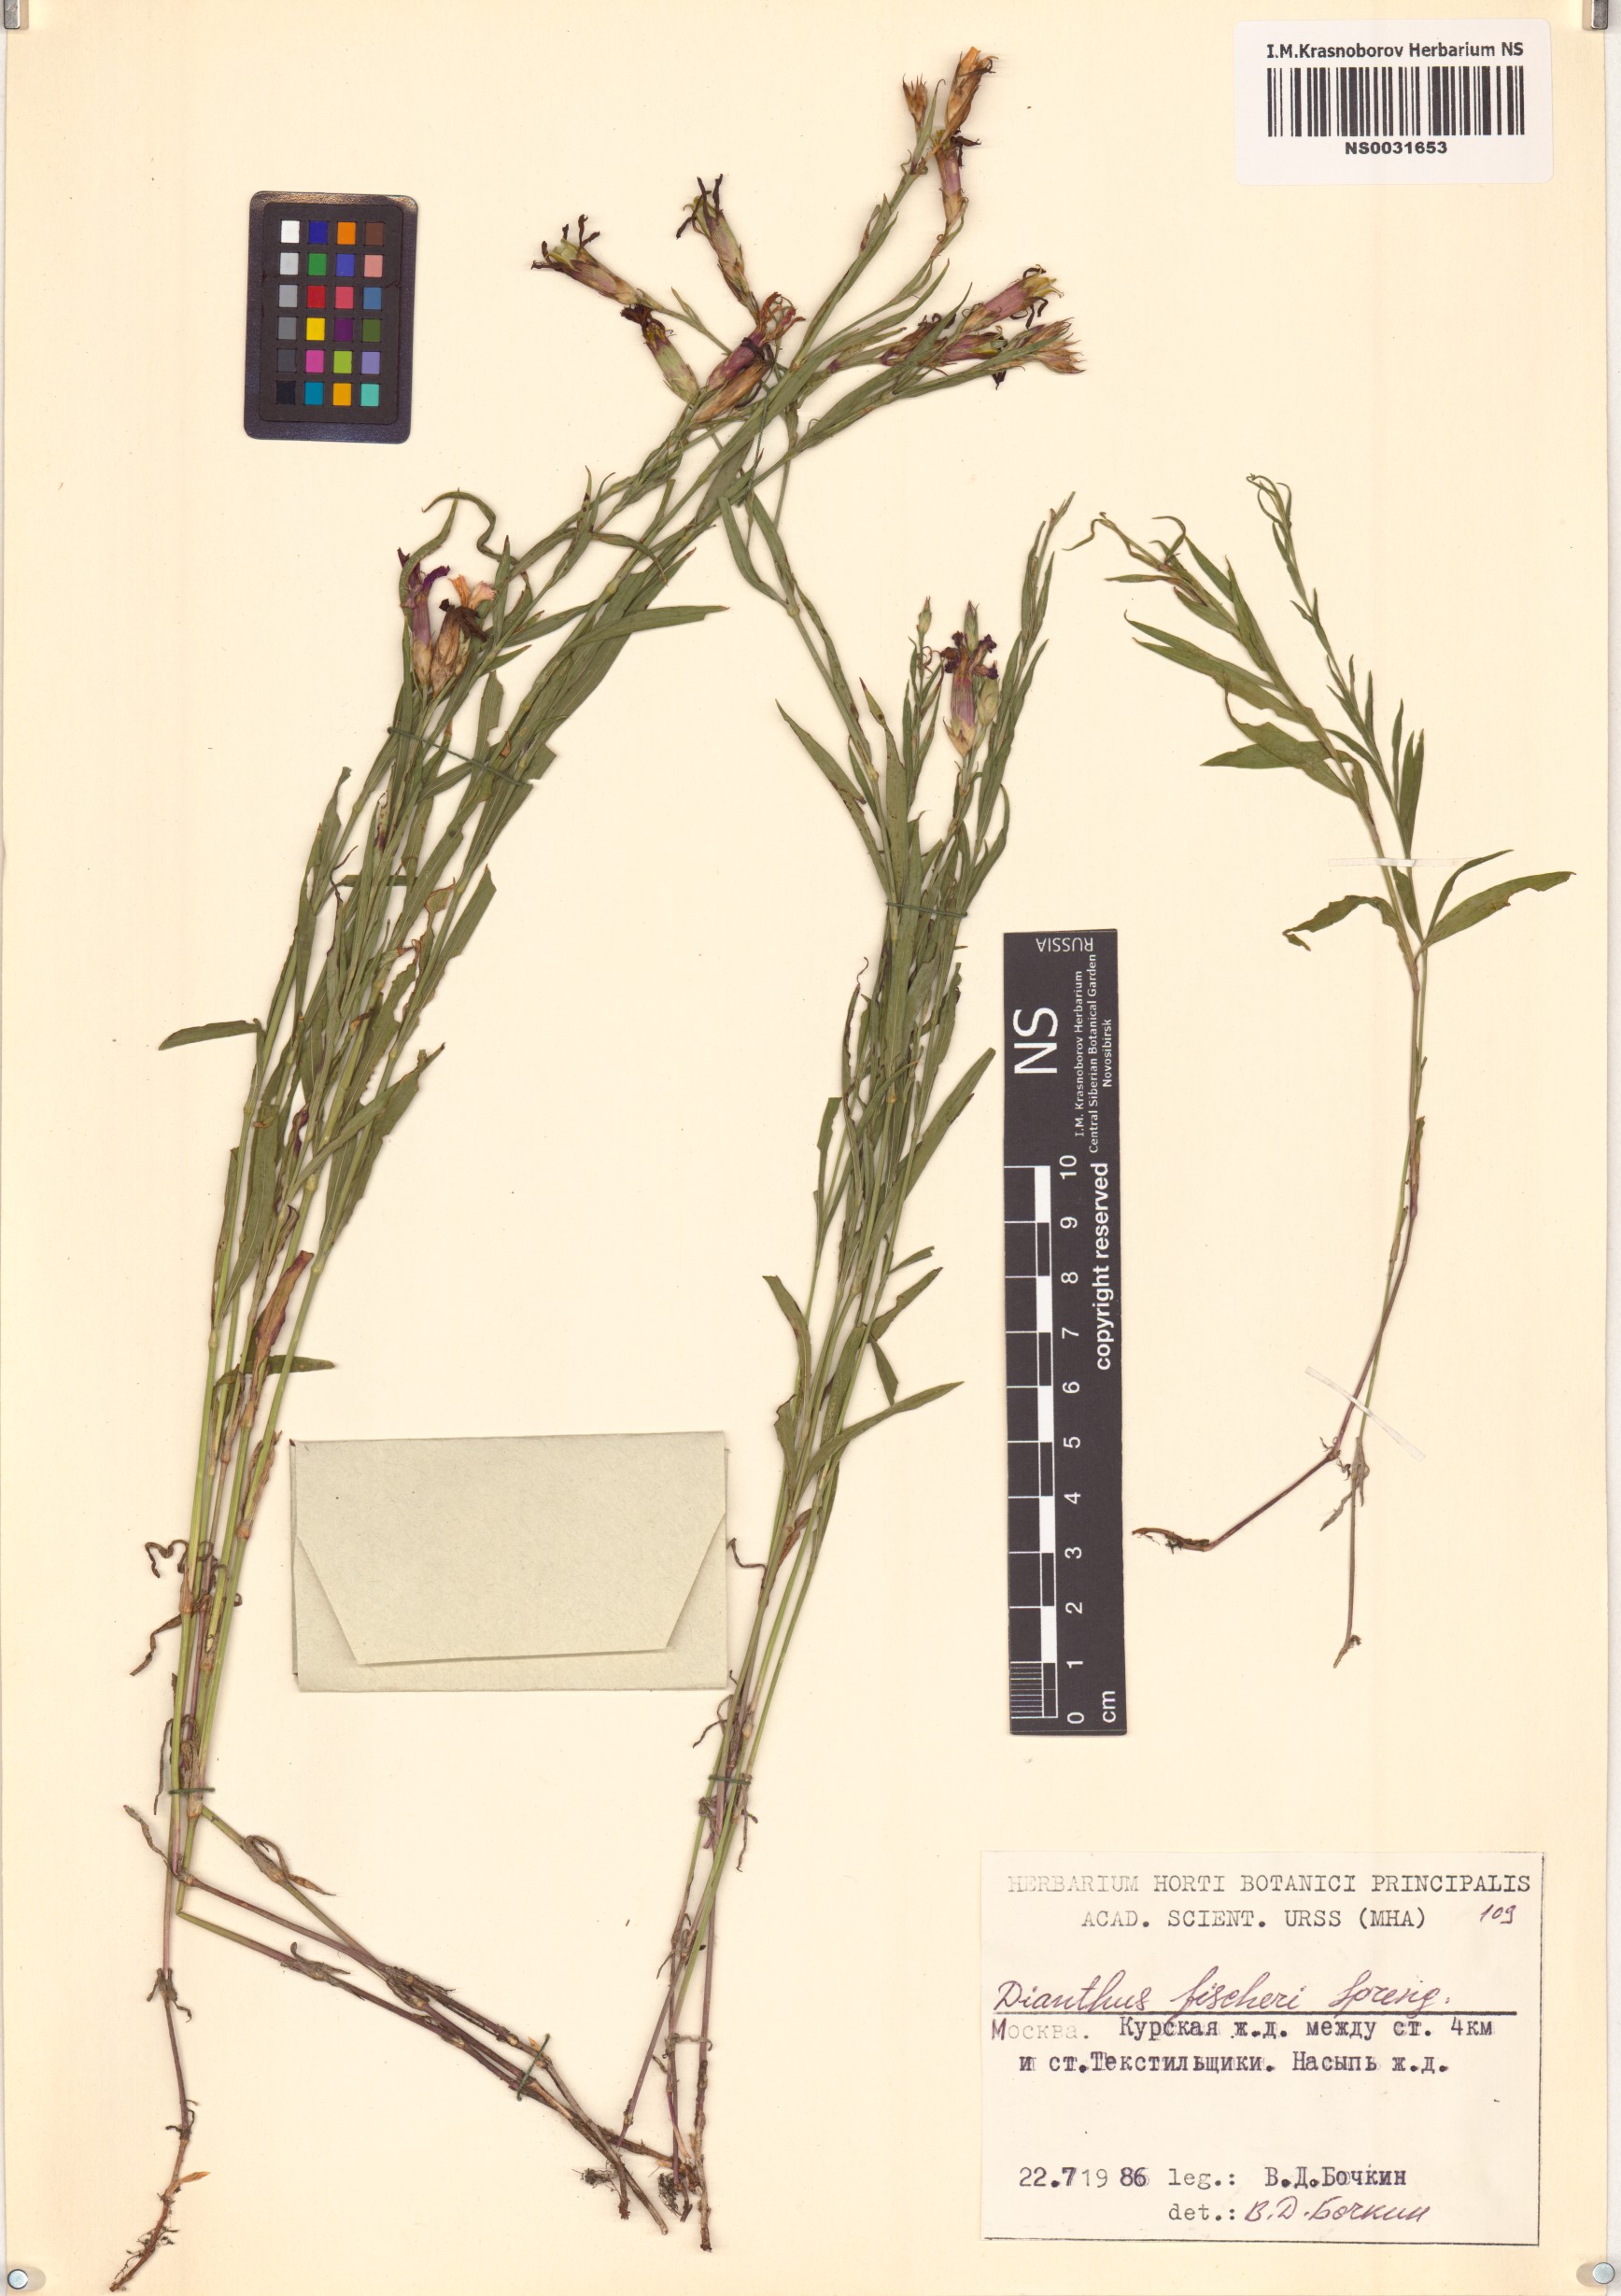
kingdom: Plantae
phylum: Tracheophyta
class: Magnoliopsida
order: Caryophyllales
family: Caryophyllaceae
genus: Dianthus
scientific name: Dianthus chinensis
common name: Rainbow pink
